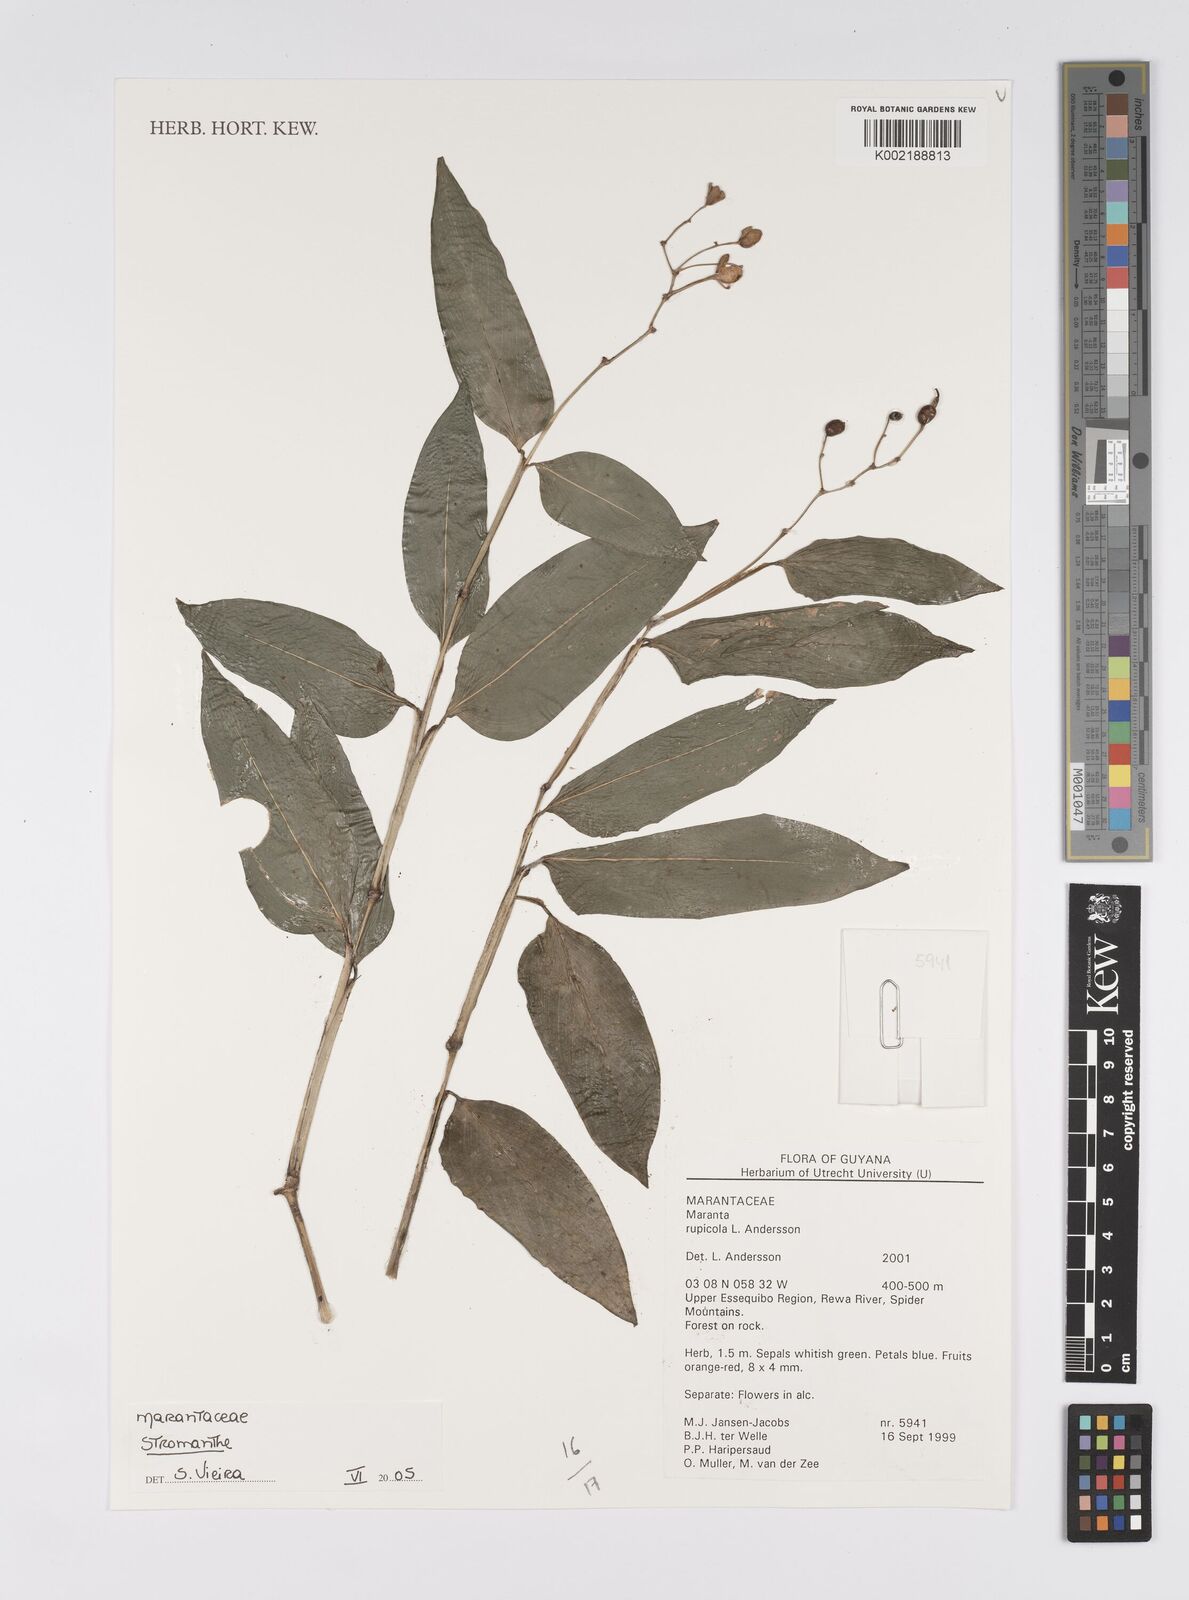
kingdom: Plantae
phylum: Tracheophyta
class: Liliopsida
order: Zingiberales
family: Marantaceae
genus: Stromanthe
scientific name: Stromanthe
